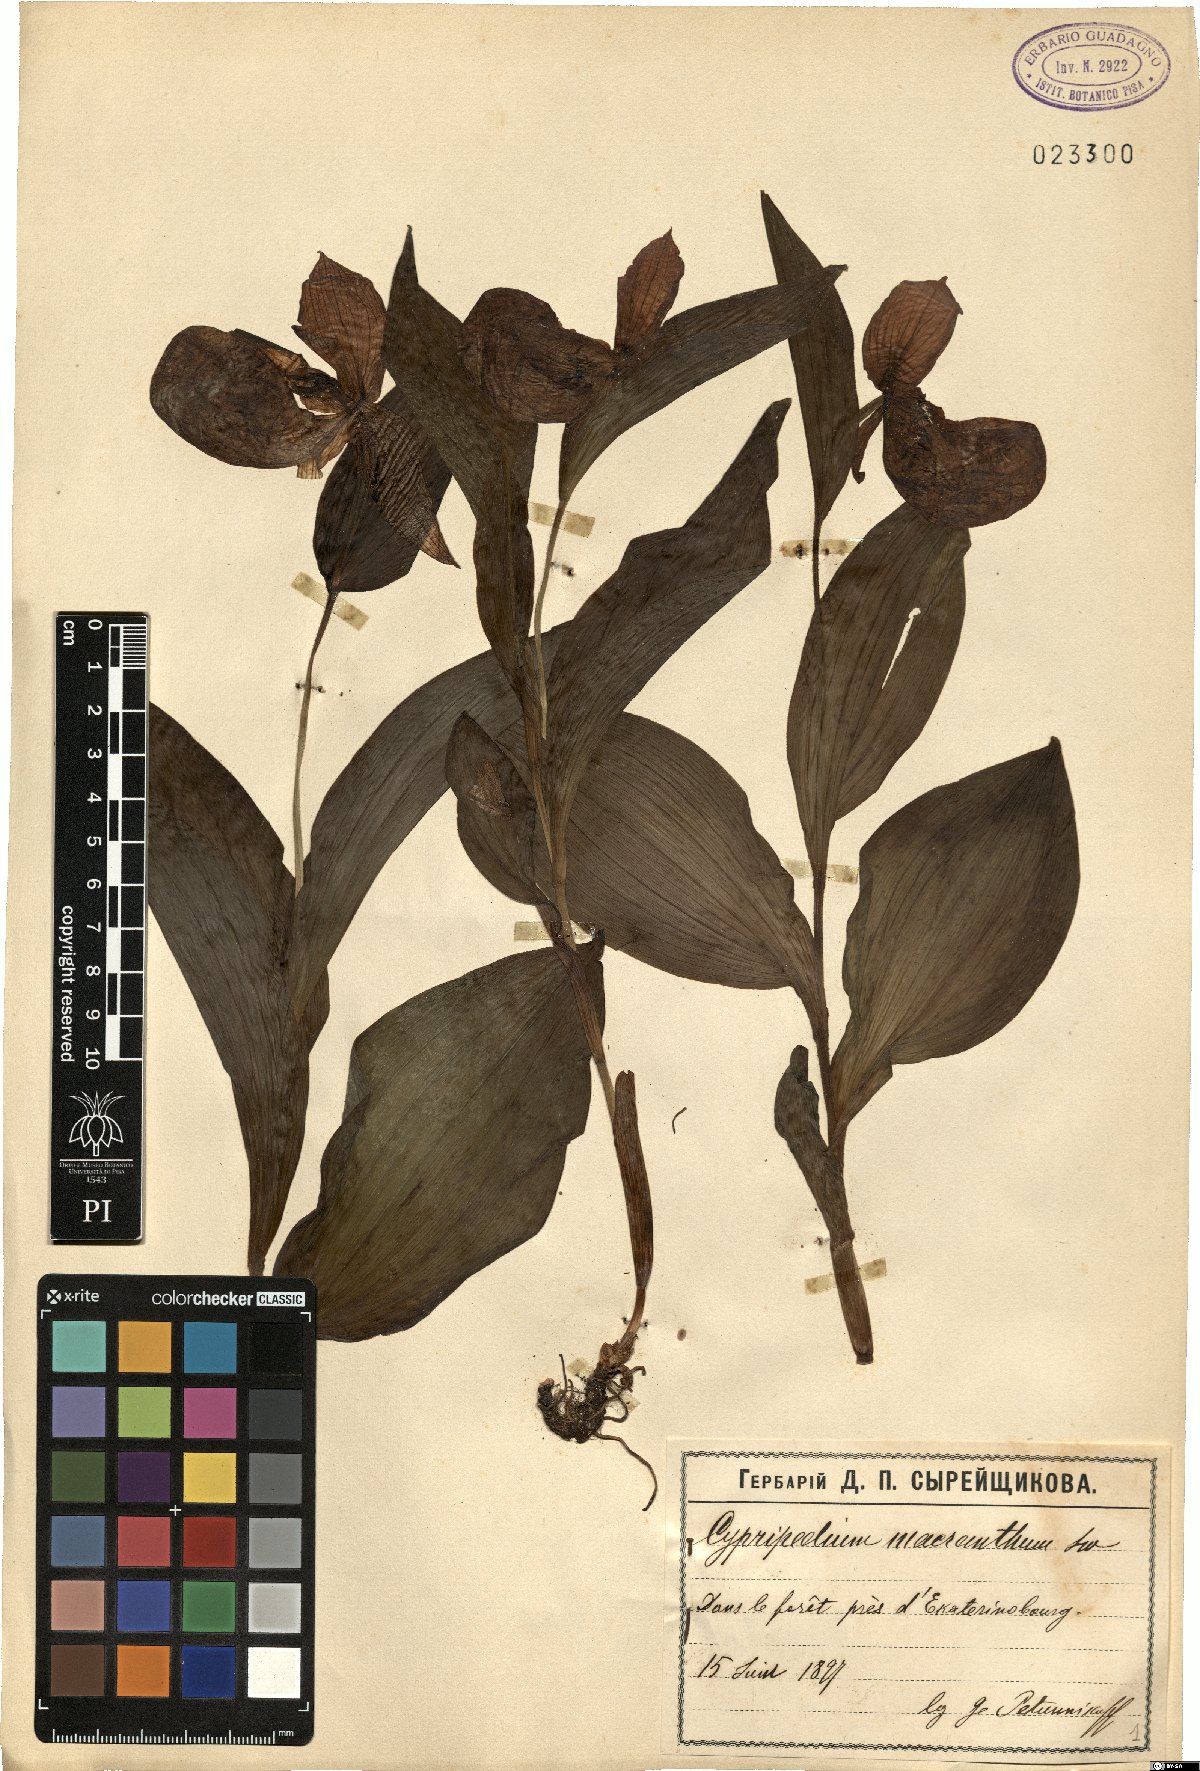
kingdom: Plantae
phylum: Tracheophyta
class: Liliopsida
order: Asparagales
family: Orchidaceae
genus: Cypripedium
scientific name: Cypripedium macranthos
